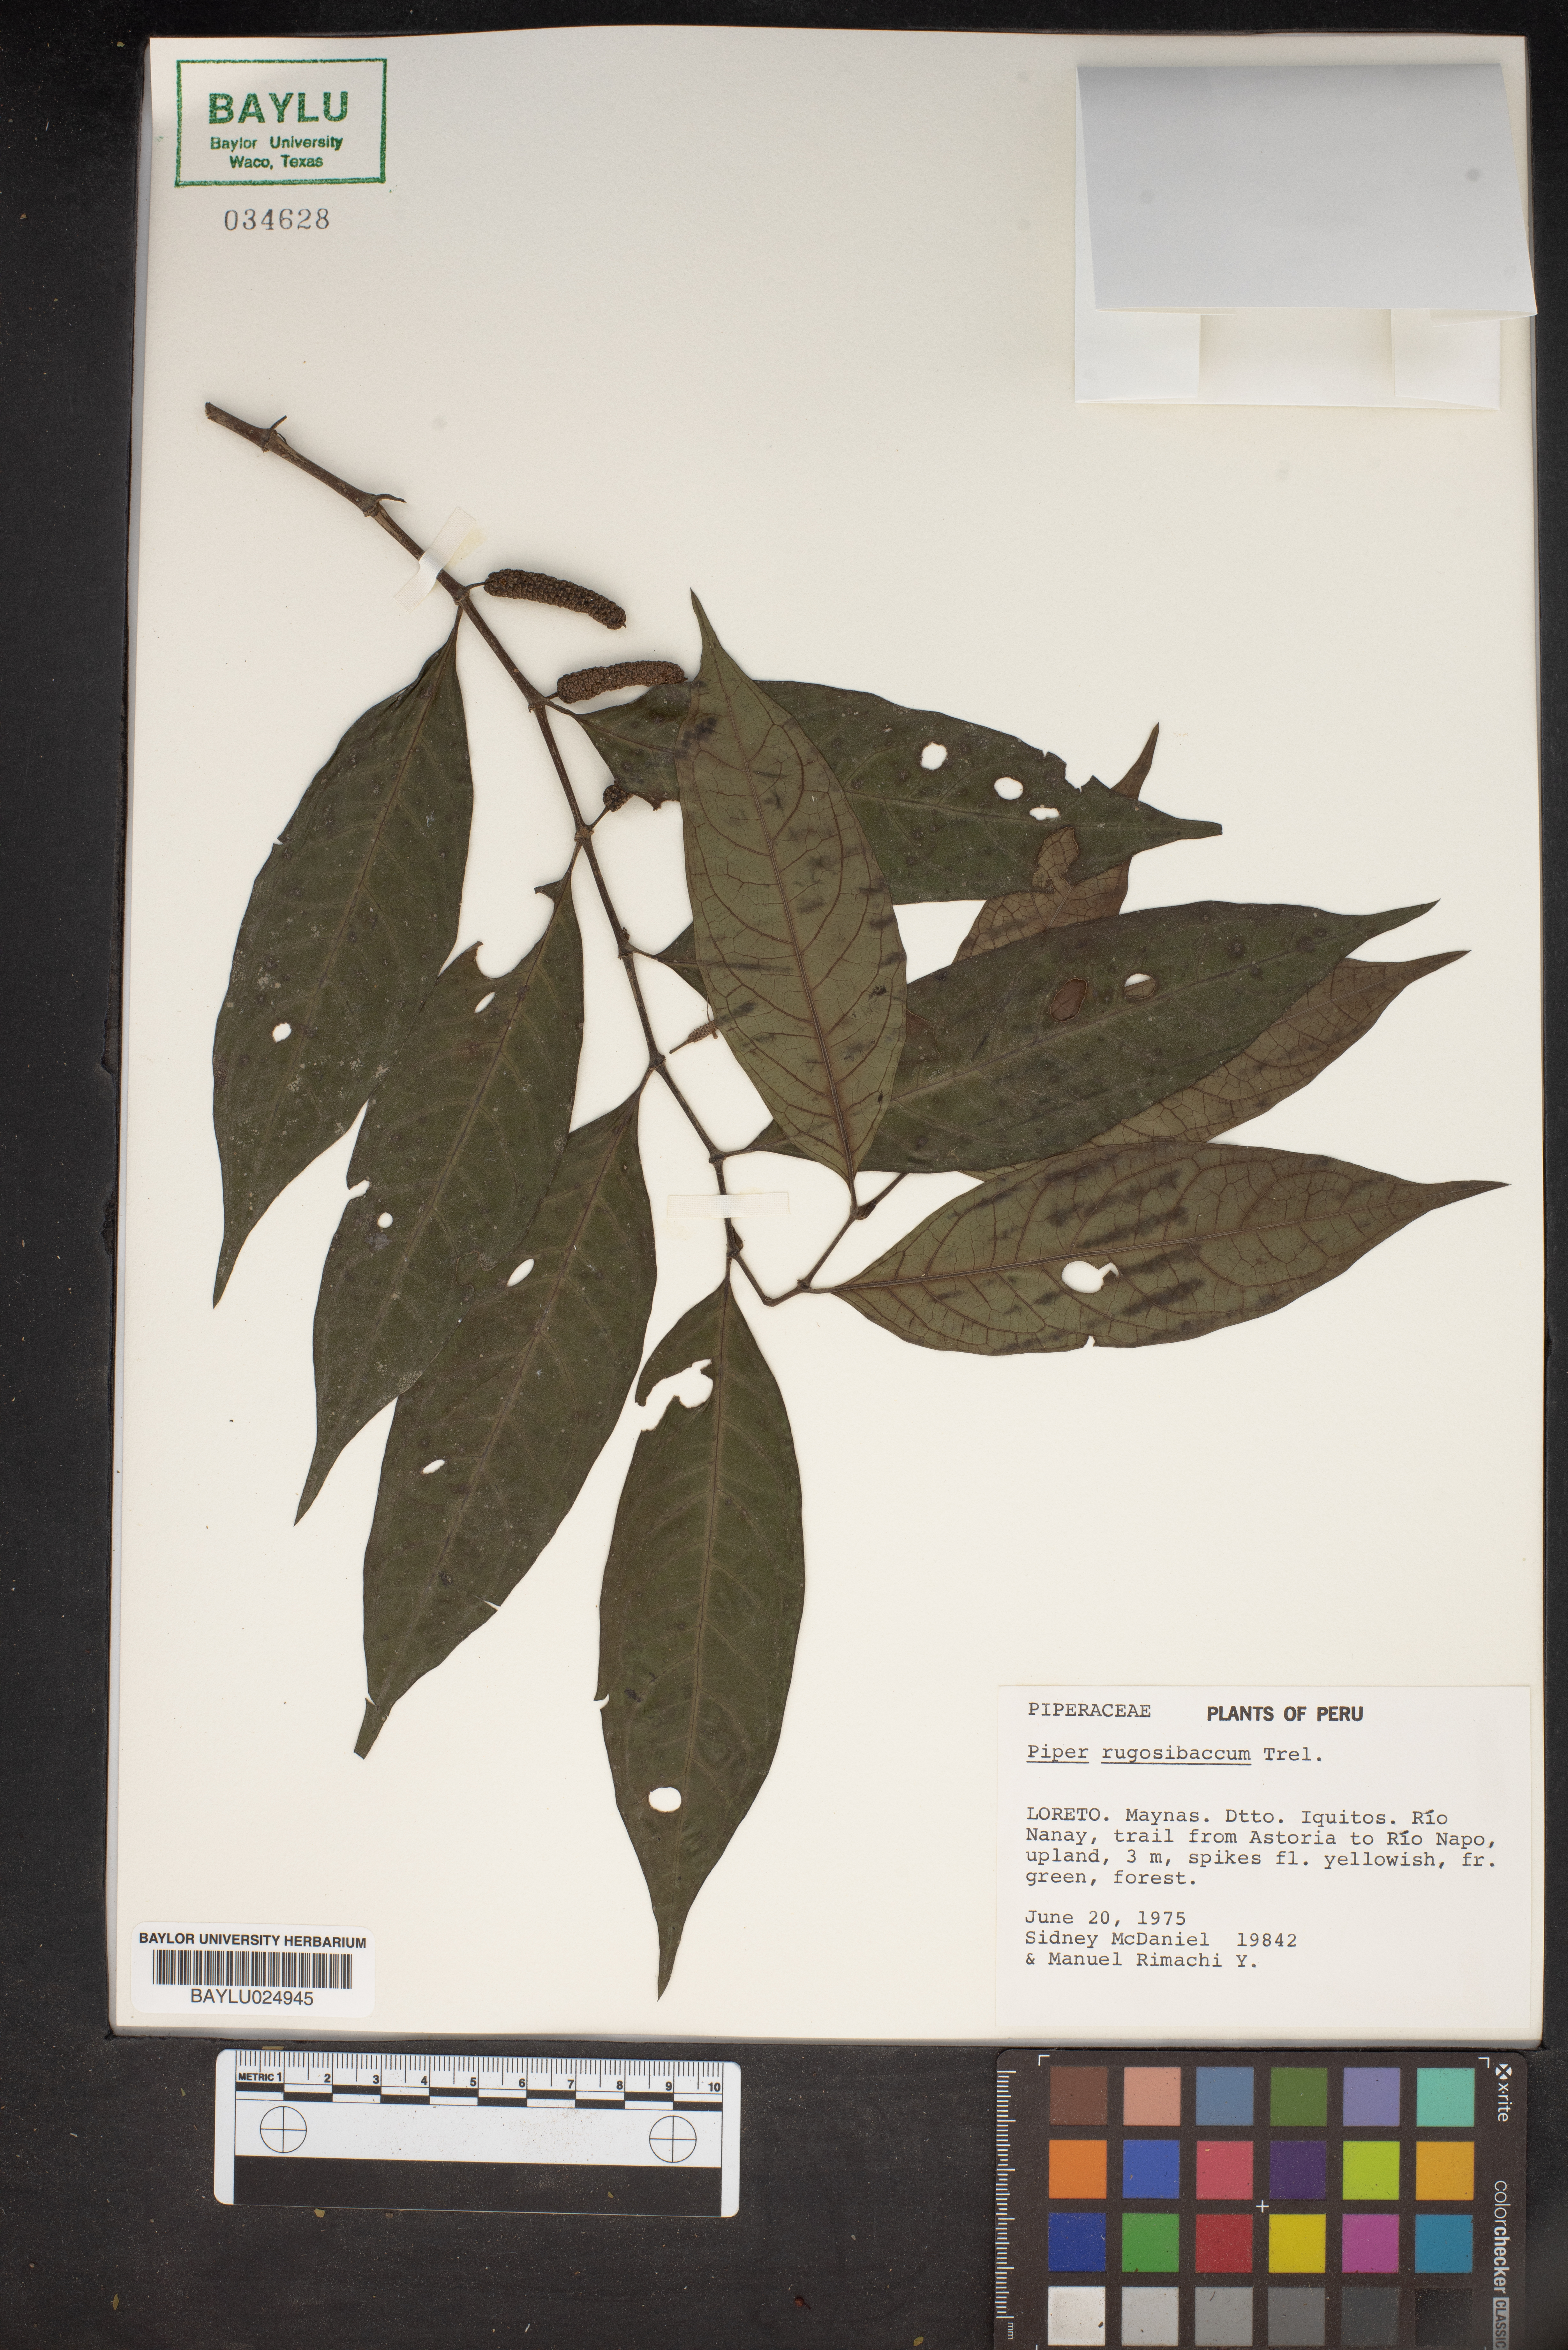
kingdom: Plantae
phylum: Tracheophyta
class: Magnoliopsida
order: Piperales
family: Piperaceae
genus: Piper
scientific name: Piper rugosibaccum
